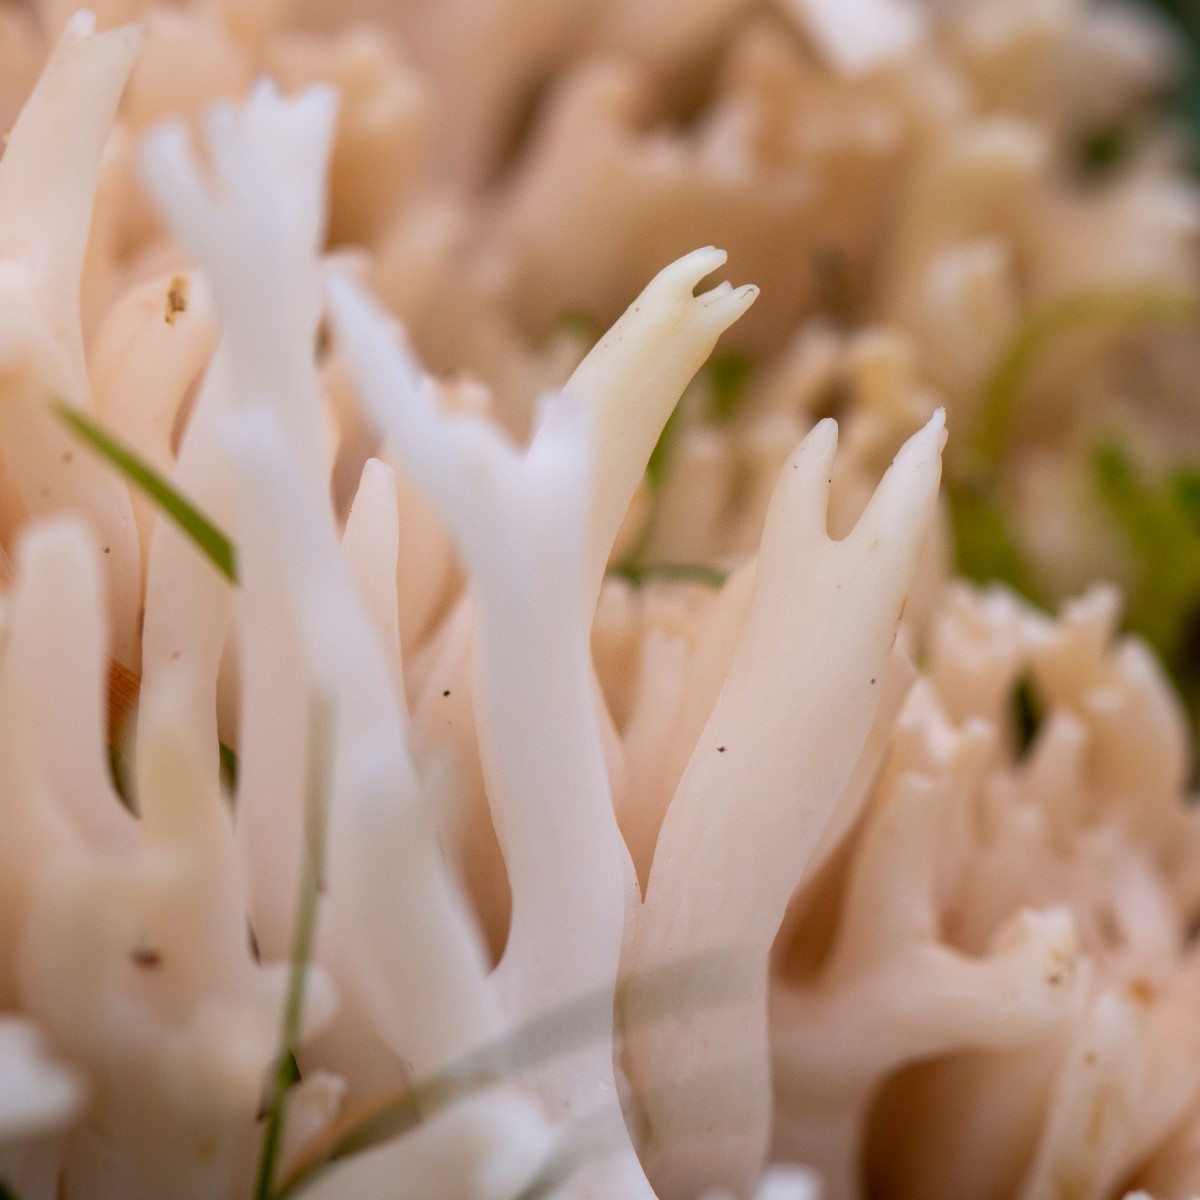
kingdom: Fungi
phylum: Basidiomycota
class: Agaricomycetes
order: Agaricales
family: Clavariaceae
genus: Ramariopsis
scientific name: Ramariopsis robusta
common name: tykgrenet køllesvamp
